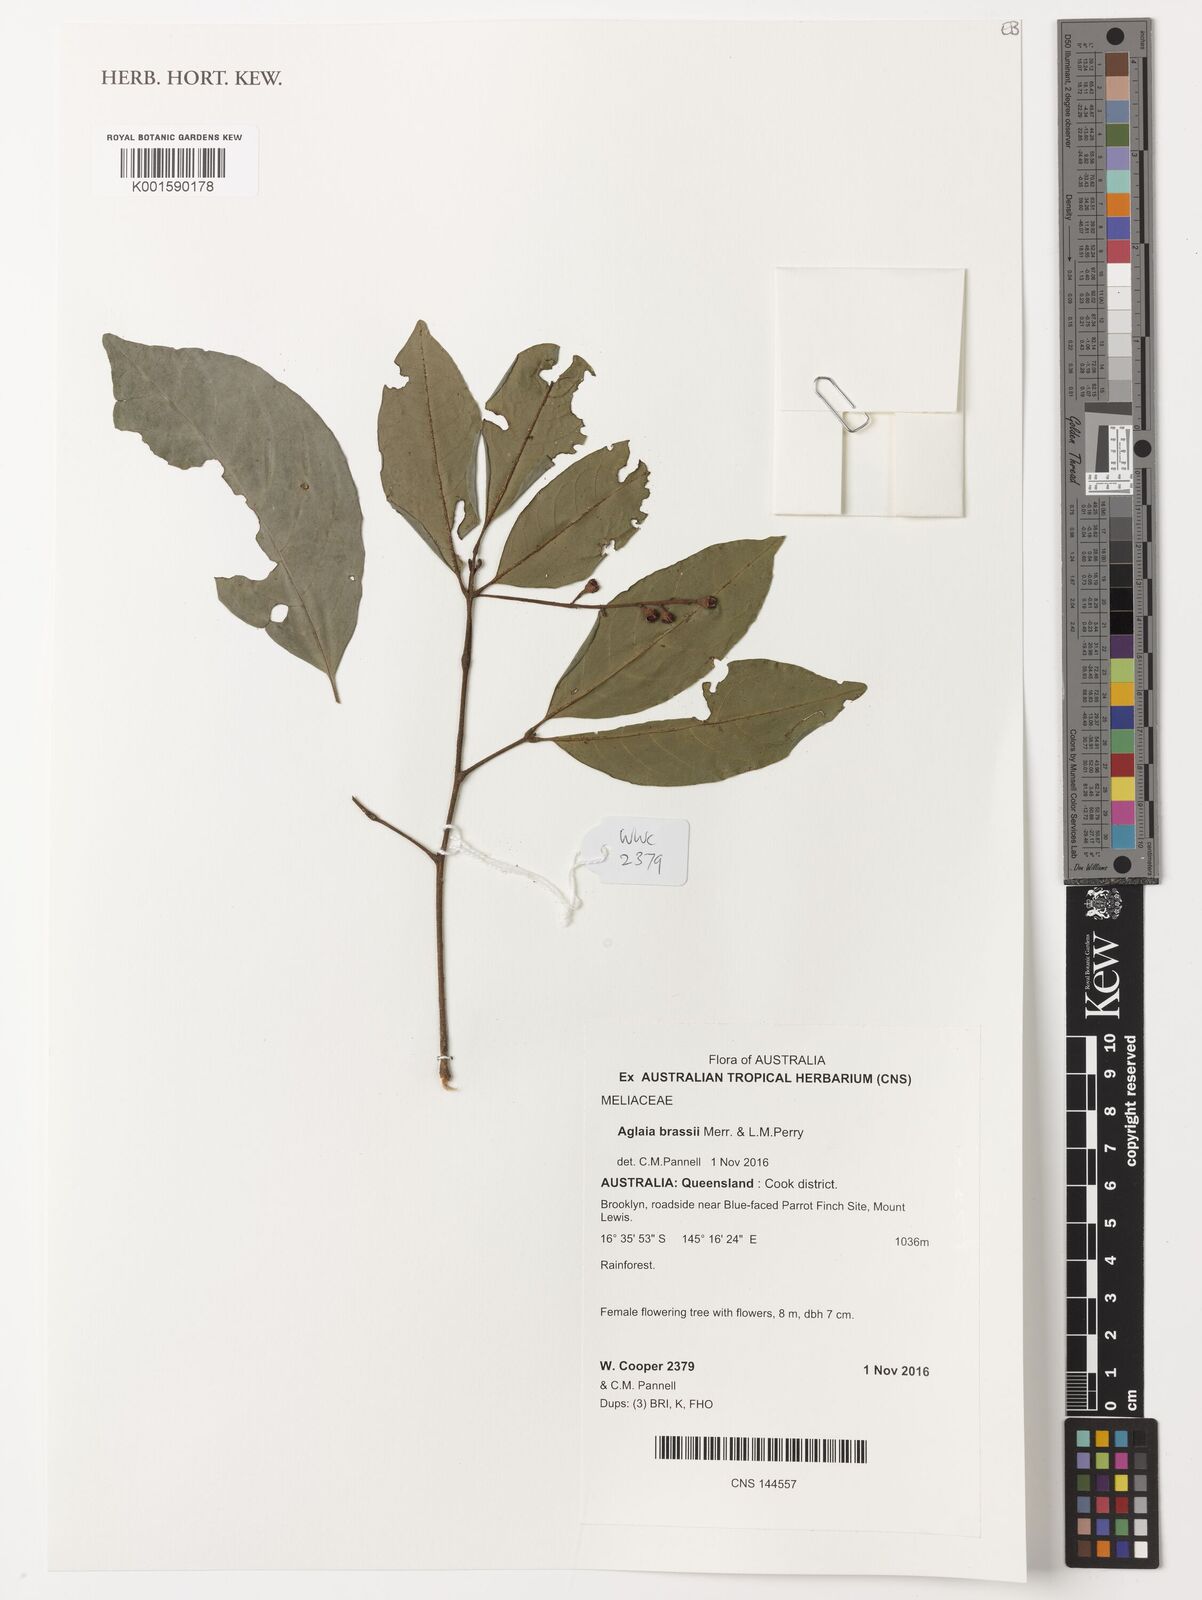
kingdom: Plantae
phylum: Tracheophyta
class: Magnoliopsida
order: Sapindales
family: Meliaceae
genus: Aglaia
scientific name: Aglaia brassii
